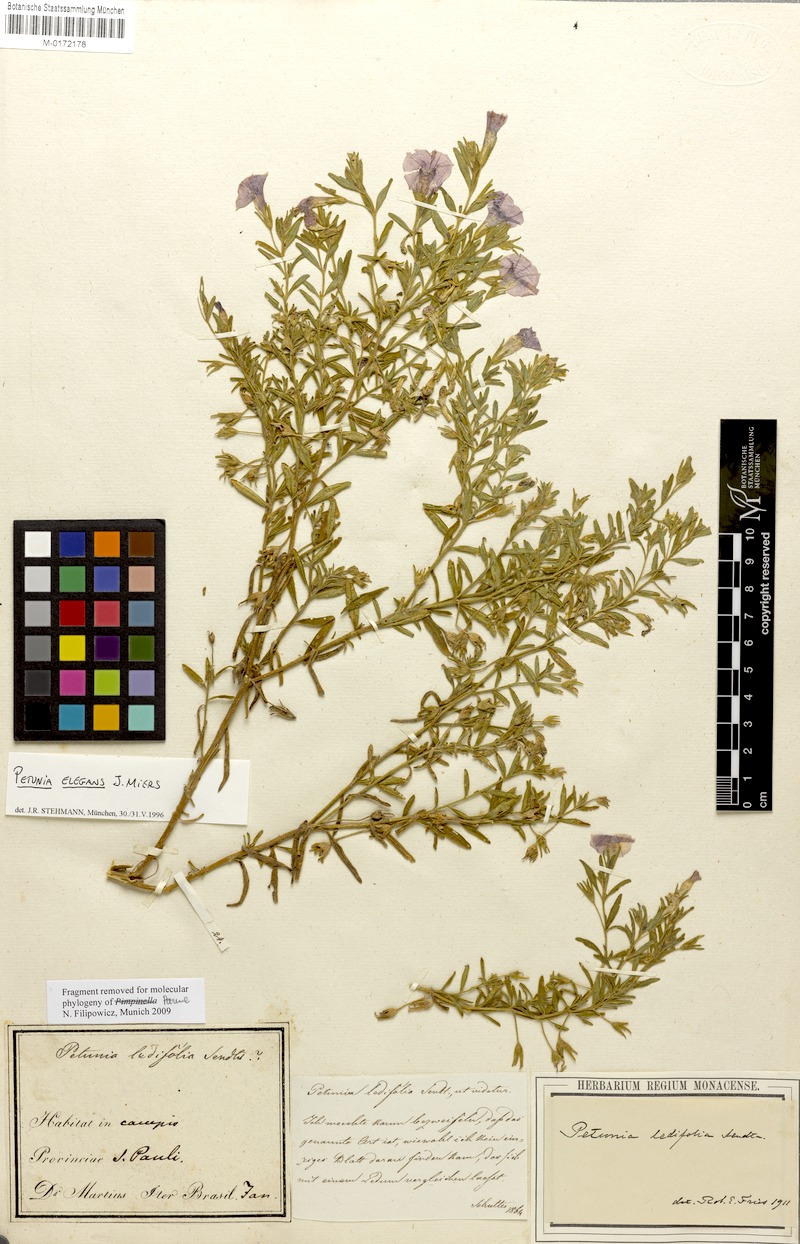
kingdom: Plantae
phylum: Tracheophyta
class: Magnoliopsida
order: Solanales
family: Solanaceae
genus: Calibrachoa
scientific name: Calibrachoa elegans
